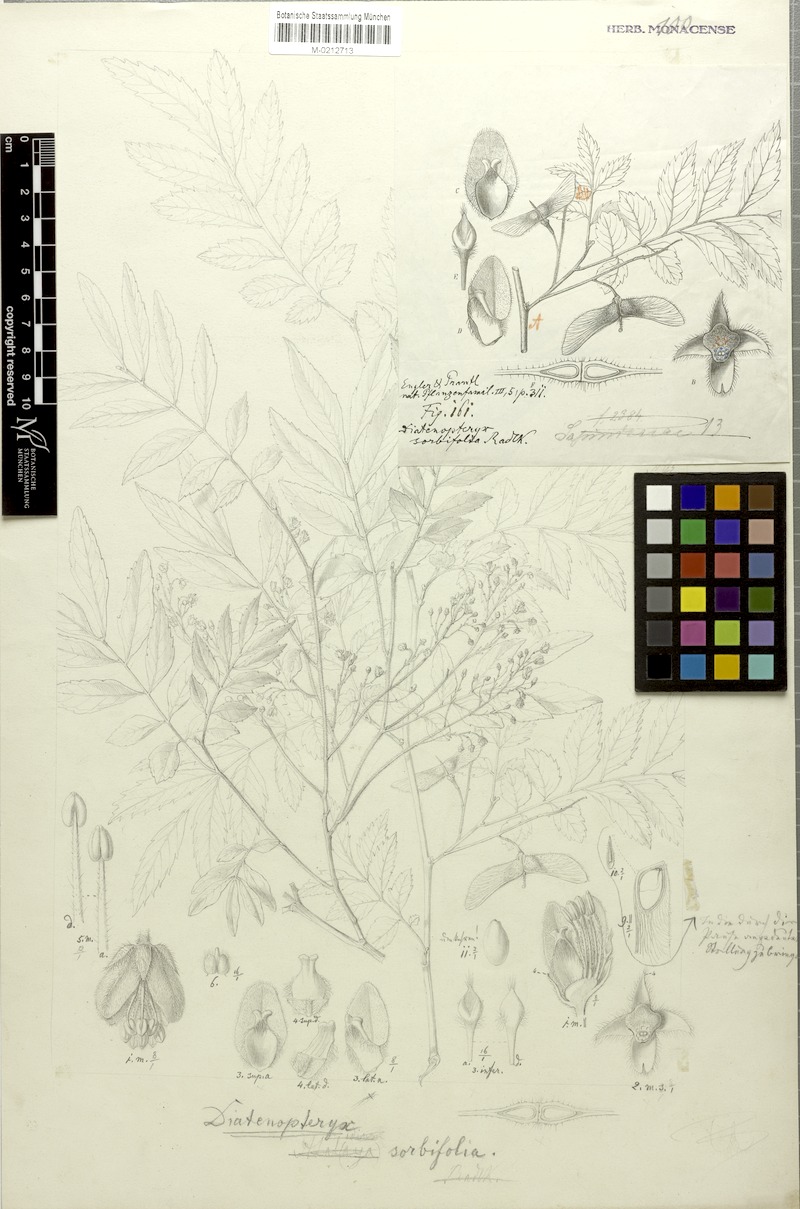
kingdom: Plantae
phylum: Tracheophyta
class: Magnoliopsida
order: Sapindales
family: Sapindaceae
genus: Diatenopteryx
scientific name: Diatenopteryx sorbifolia
